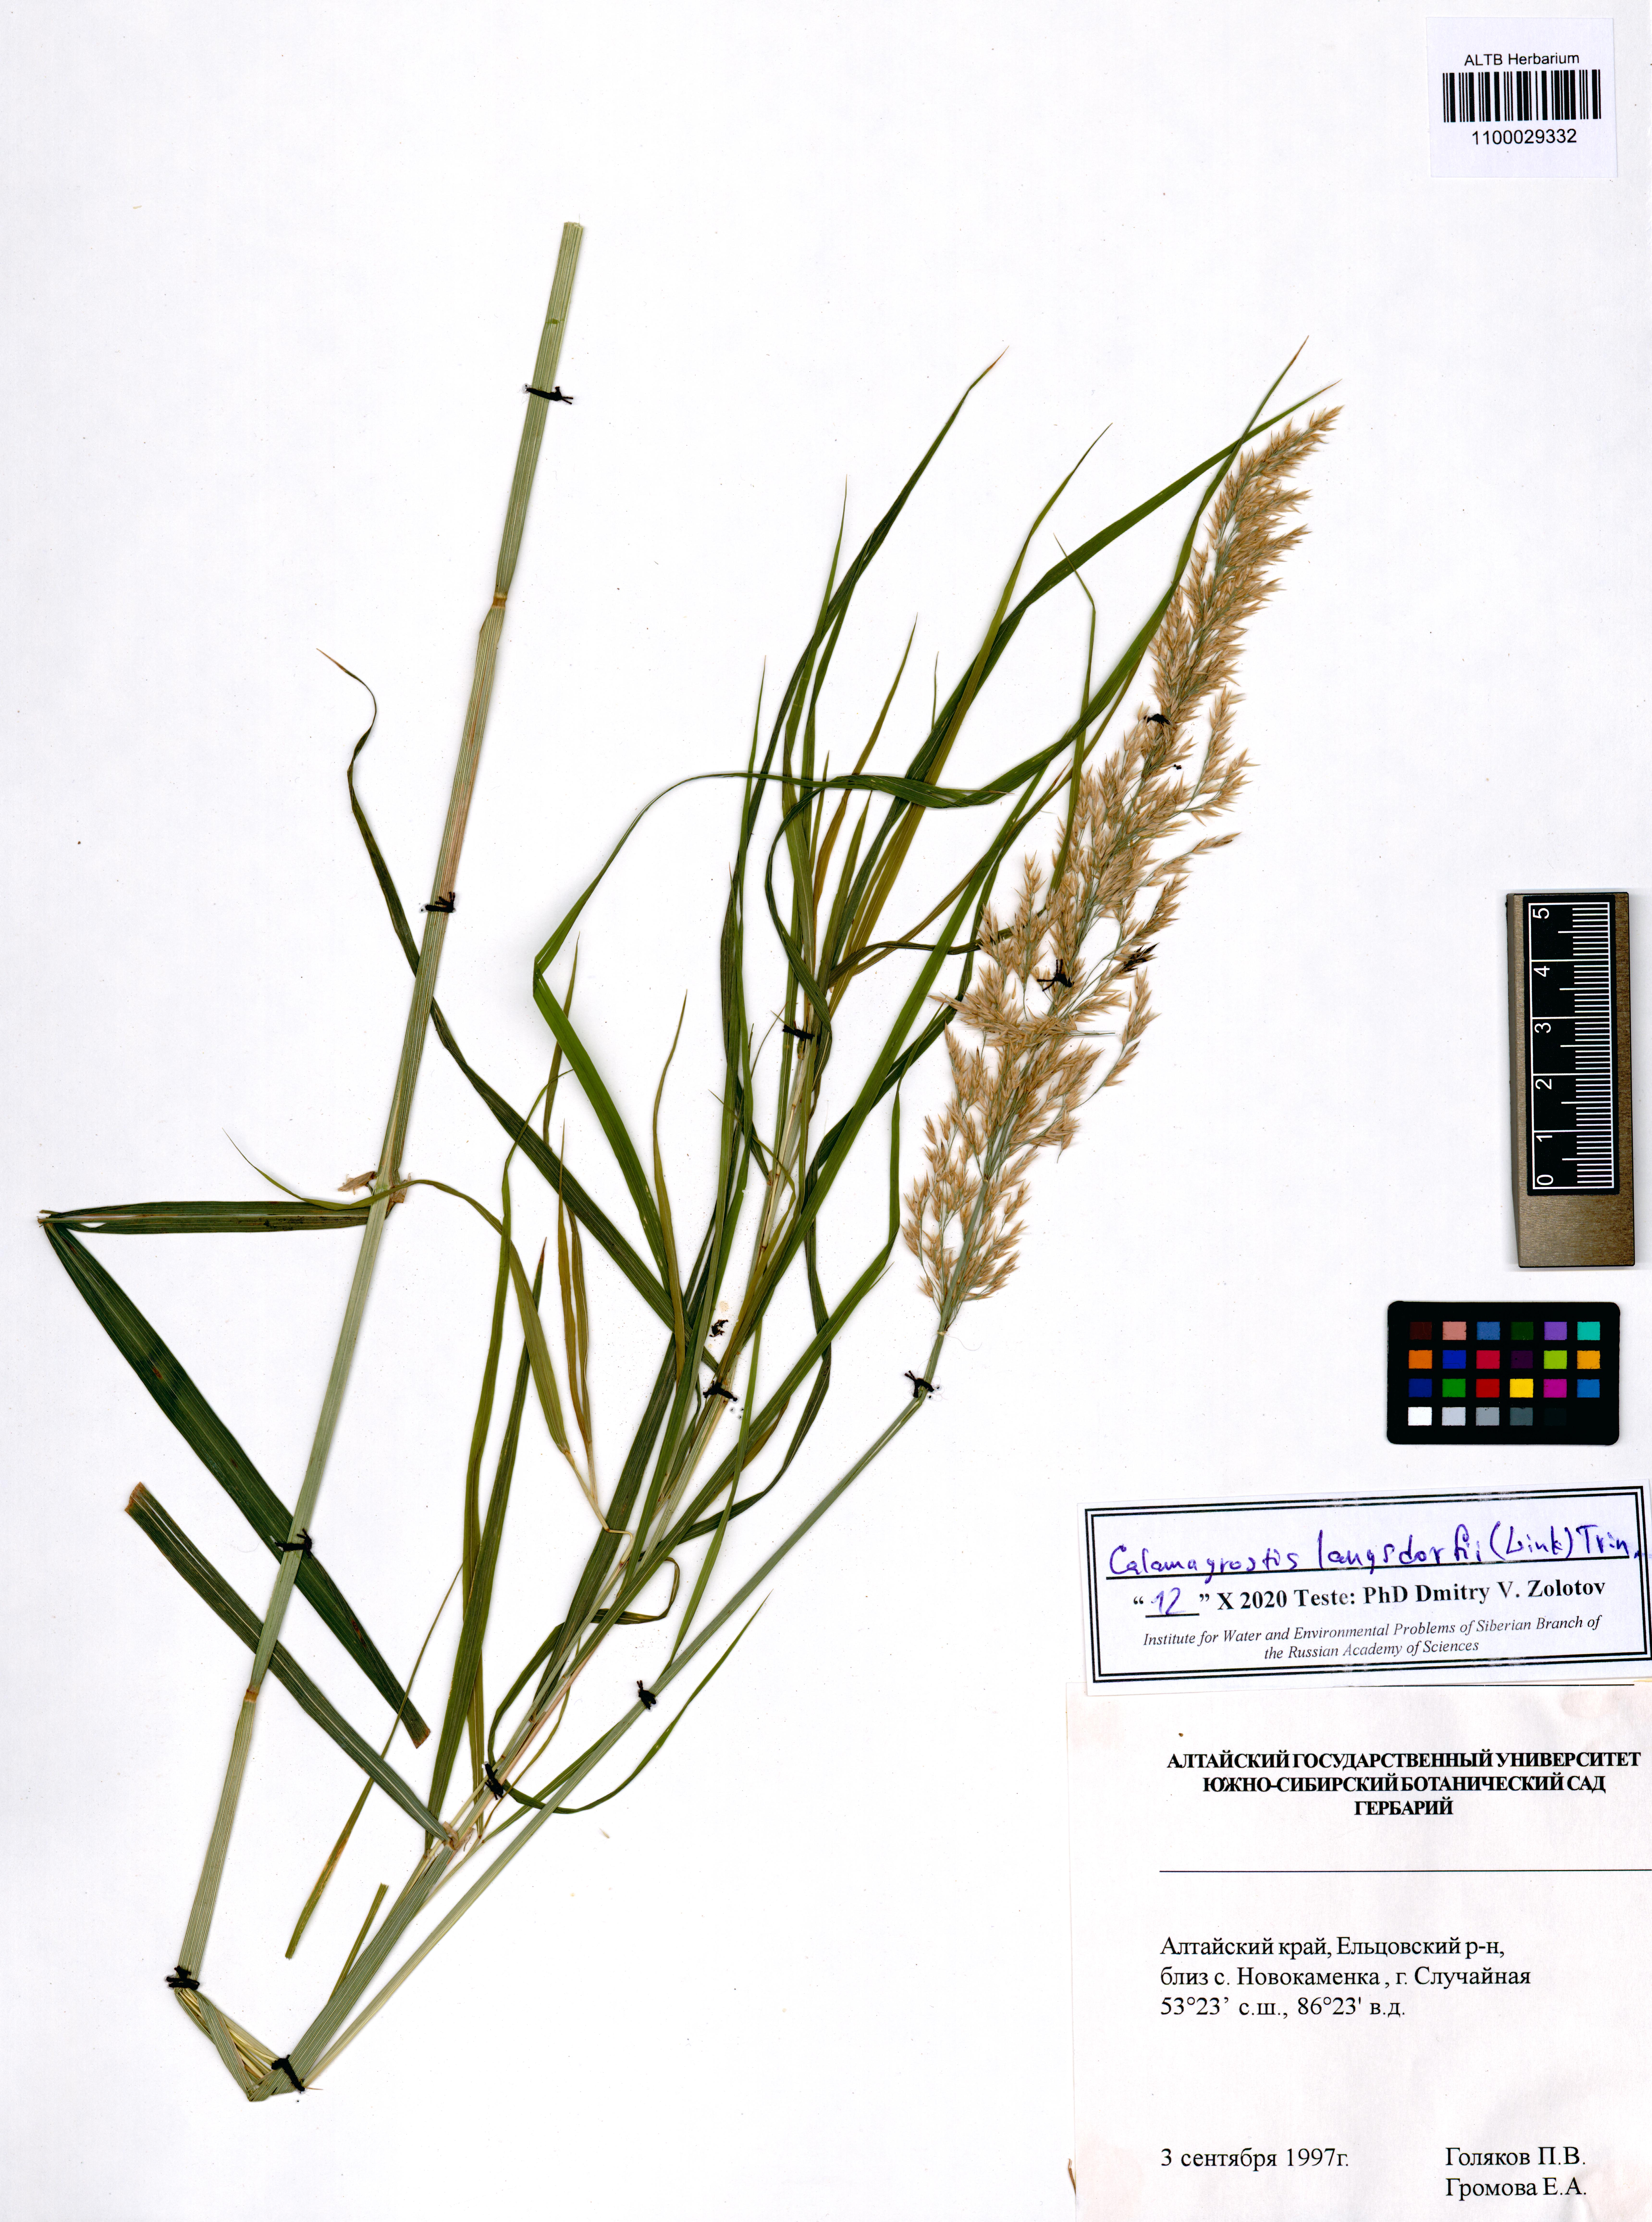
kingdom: Plantae
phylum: Tracheophyta
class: Liliopsida
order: Poales
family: Poaceae
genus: Calamagrostis
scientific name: Calamagrostis purpurea
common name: Scandinavian small-reed
